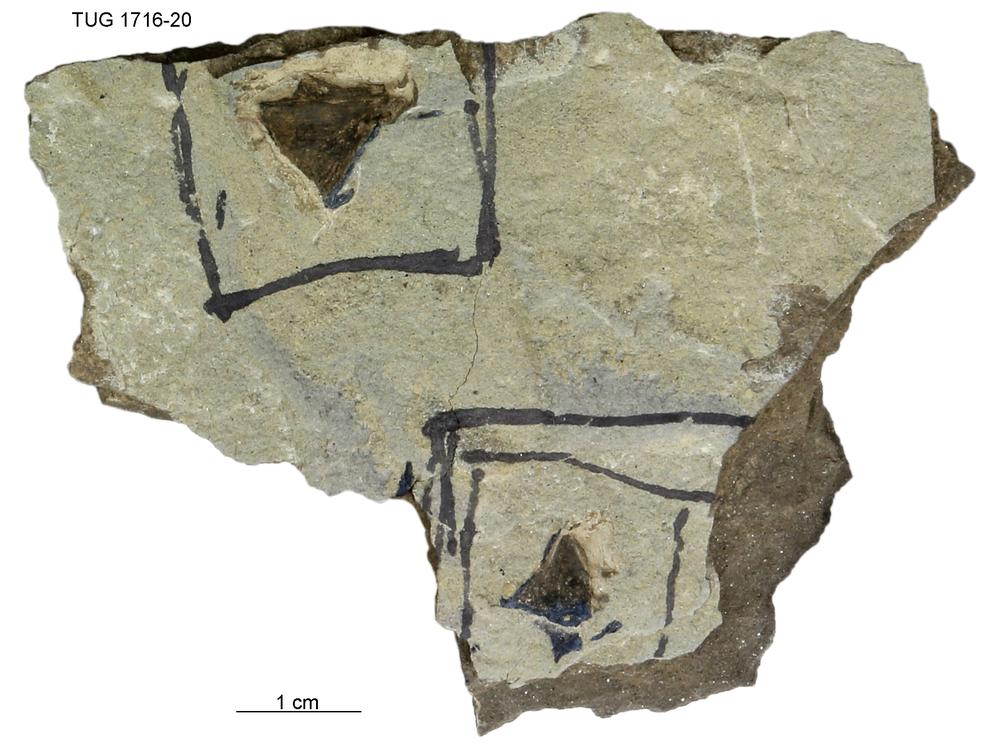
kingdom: Animalia
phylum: Chordata
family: Coccosteidae
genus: Millerosteus
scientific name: Millerosteus minor
